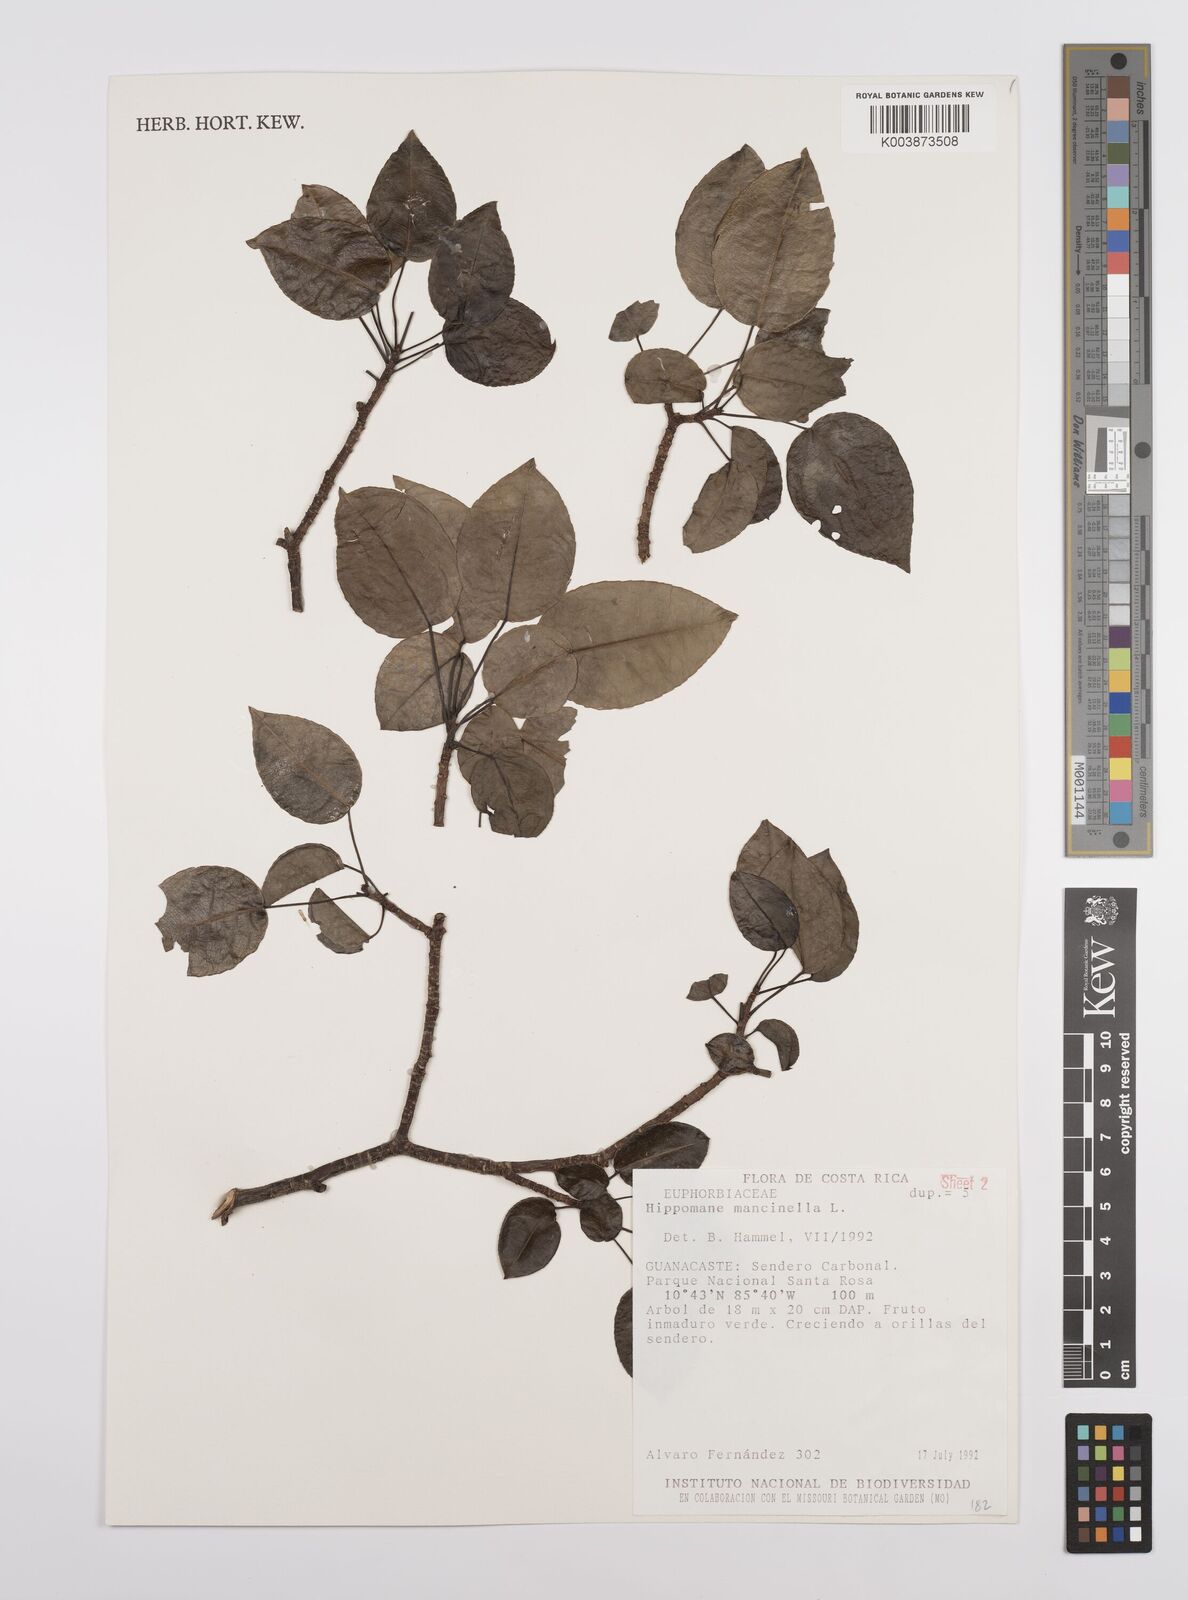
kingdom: Plantae
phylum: Tracheophyta
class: Magnoliopsida
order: Malpighiales
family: Euphorbiaceae
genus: Hippomane
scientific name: Hippomane mancinella
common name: Manchineel
